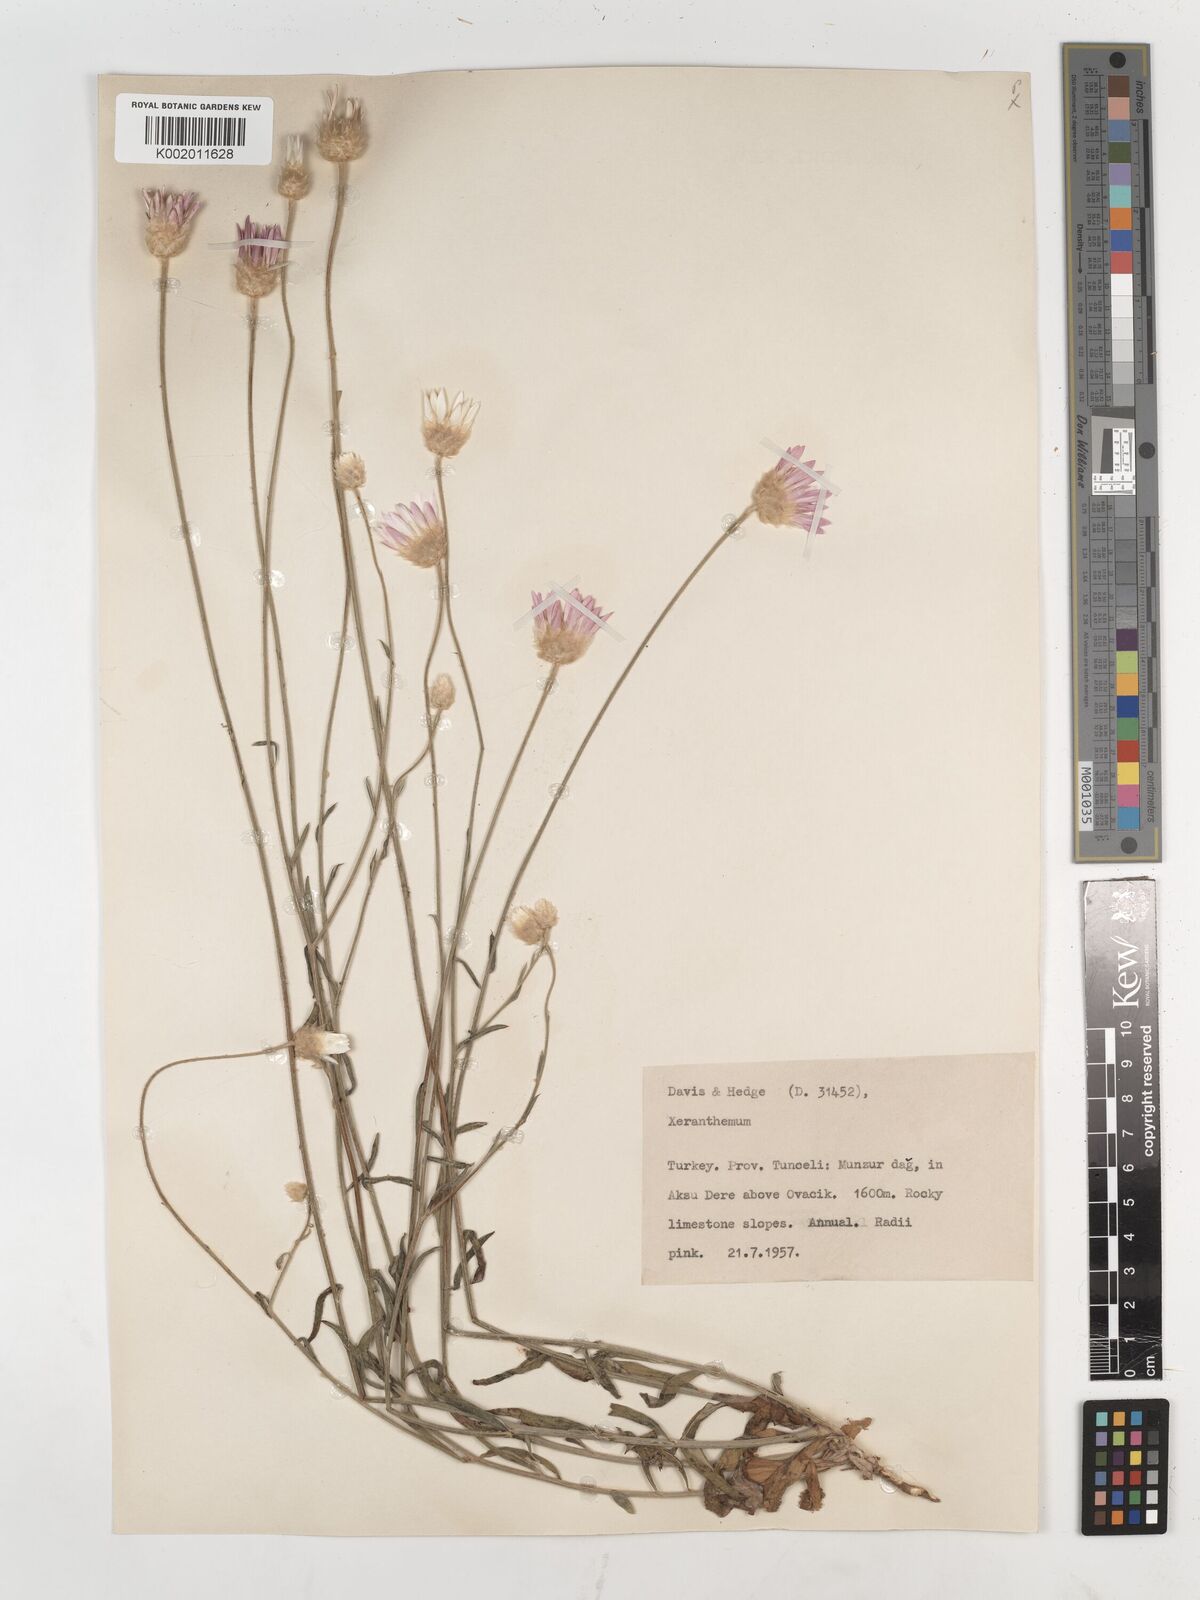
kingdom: Plantae
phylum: Tracheophyta
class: Magnoliopsida
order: Asterales
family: Asteraceae
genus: Xeranthemum
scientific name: Xeranthemum annuum
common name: Immortelle
